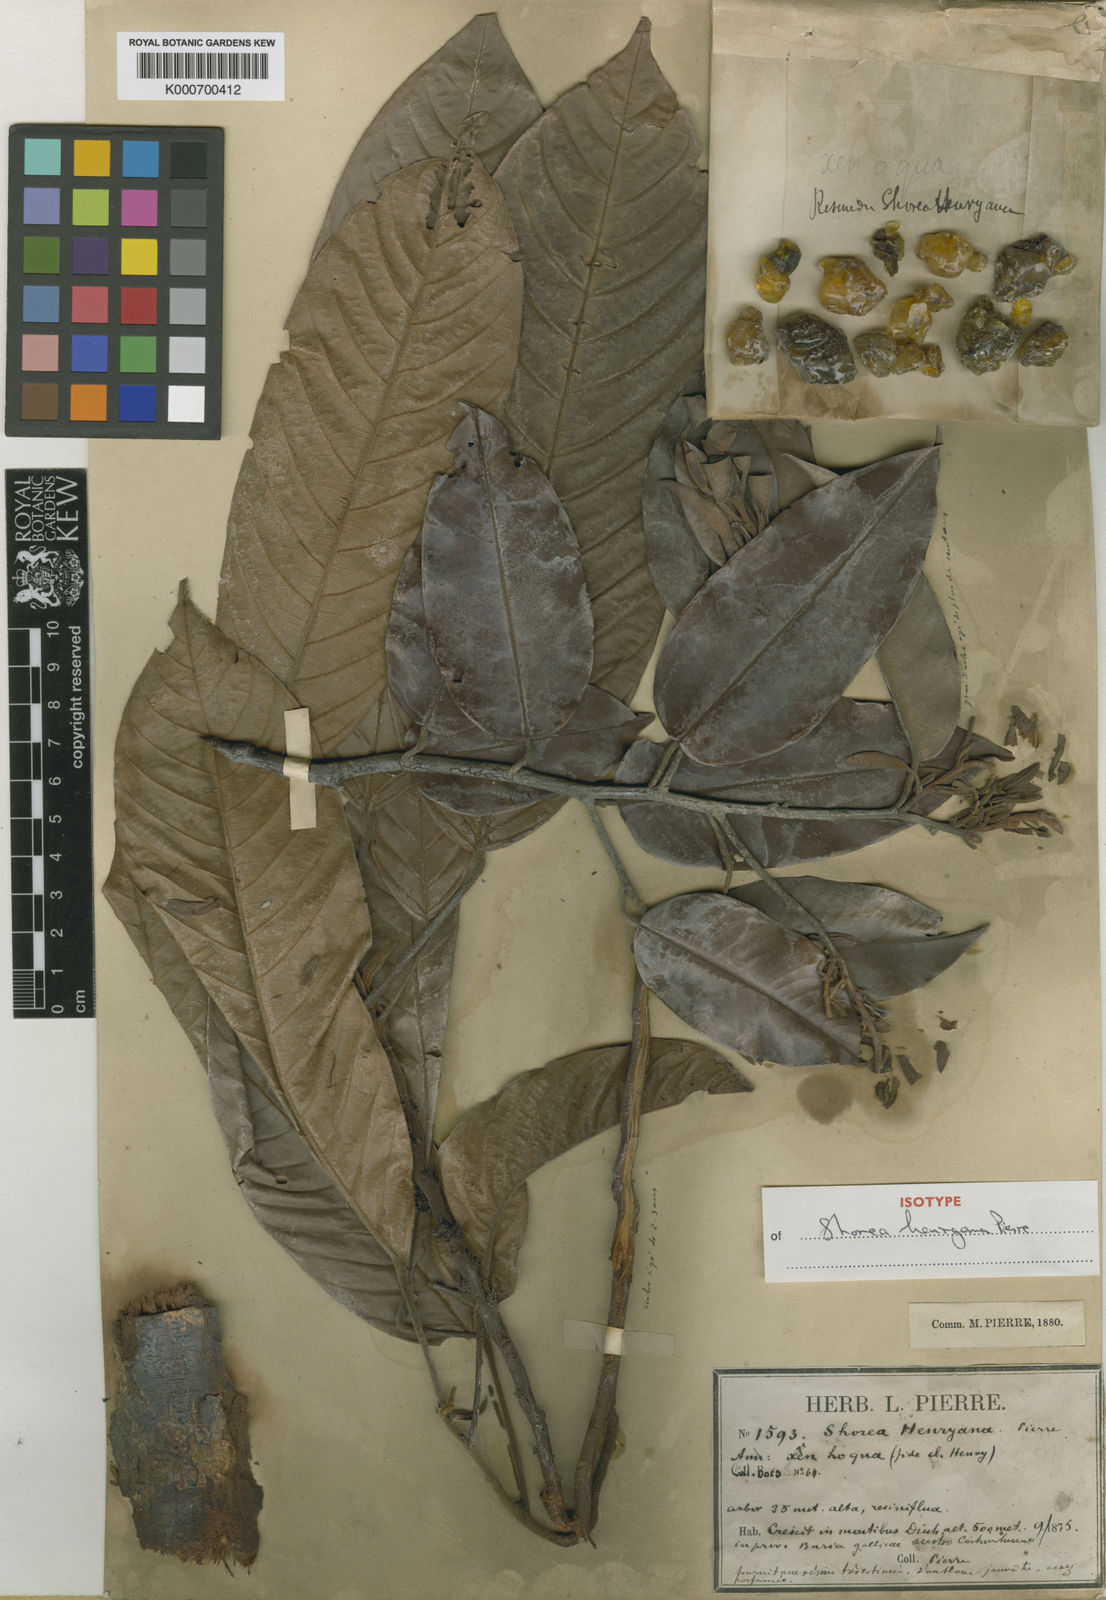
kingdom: Plantae
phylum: Tracheophyta
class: Magnoliopsida
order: Malvales
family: Dipterocarpaceae
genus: Shorea
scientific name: Shorea
